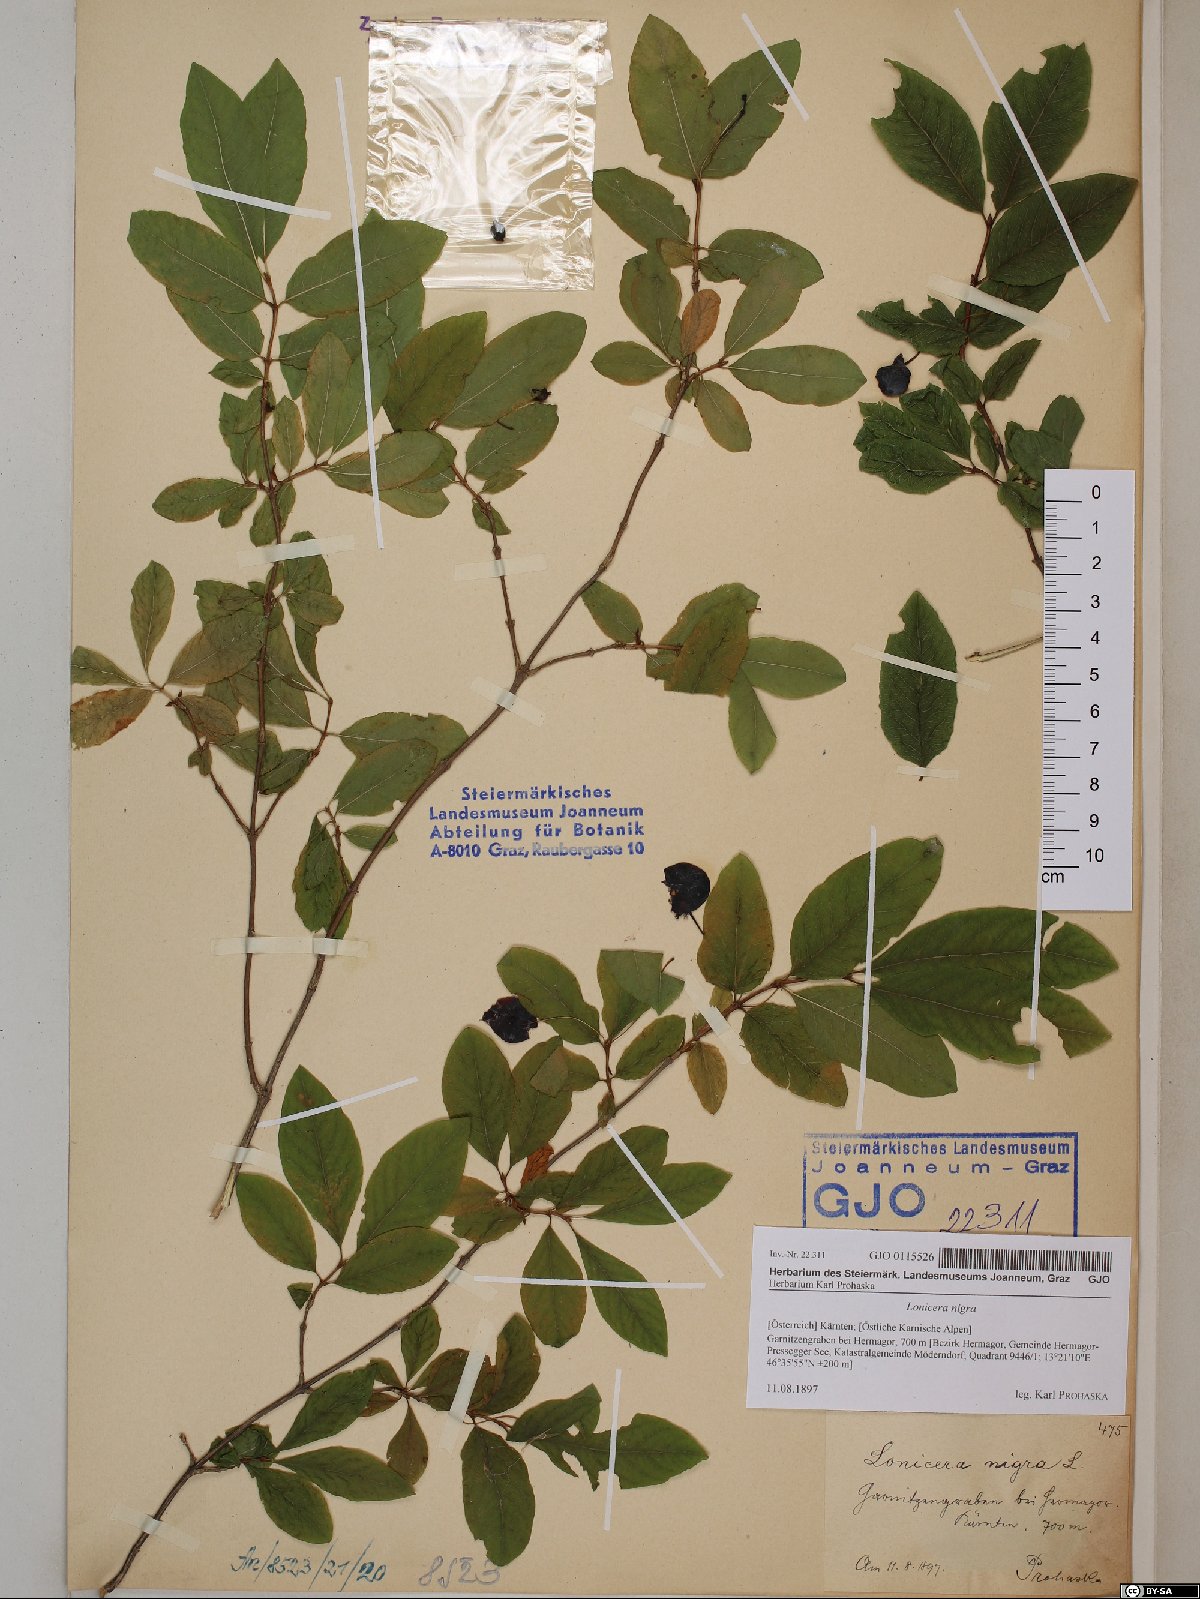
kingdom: Plantae
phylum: Tracheophyta
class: Magnoliopsida
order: Dipsacales
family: Caprifoliaceae
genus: Lonicera
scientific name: Lonicera nigra
